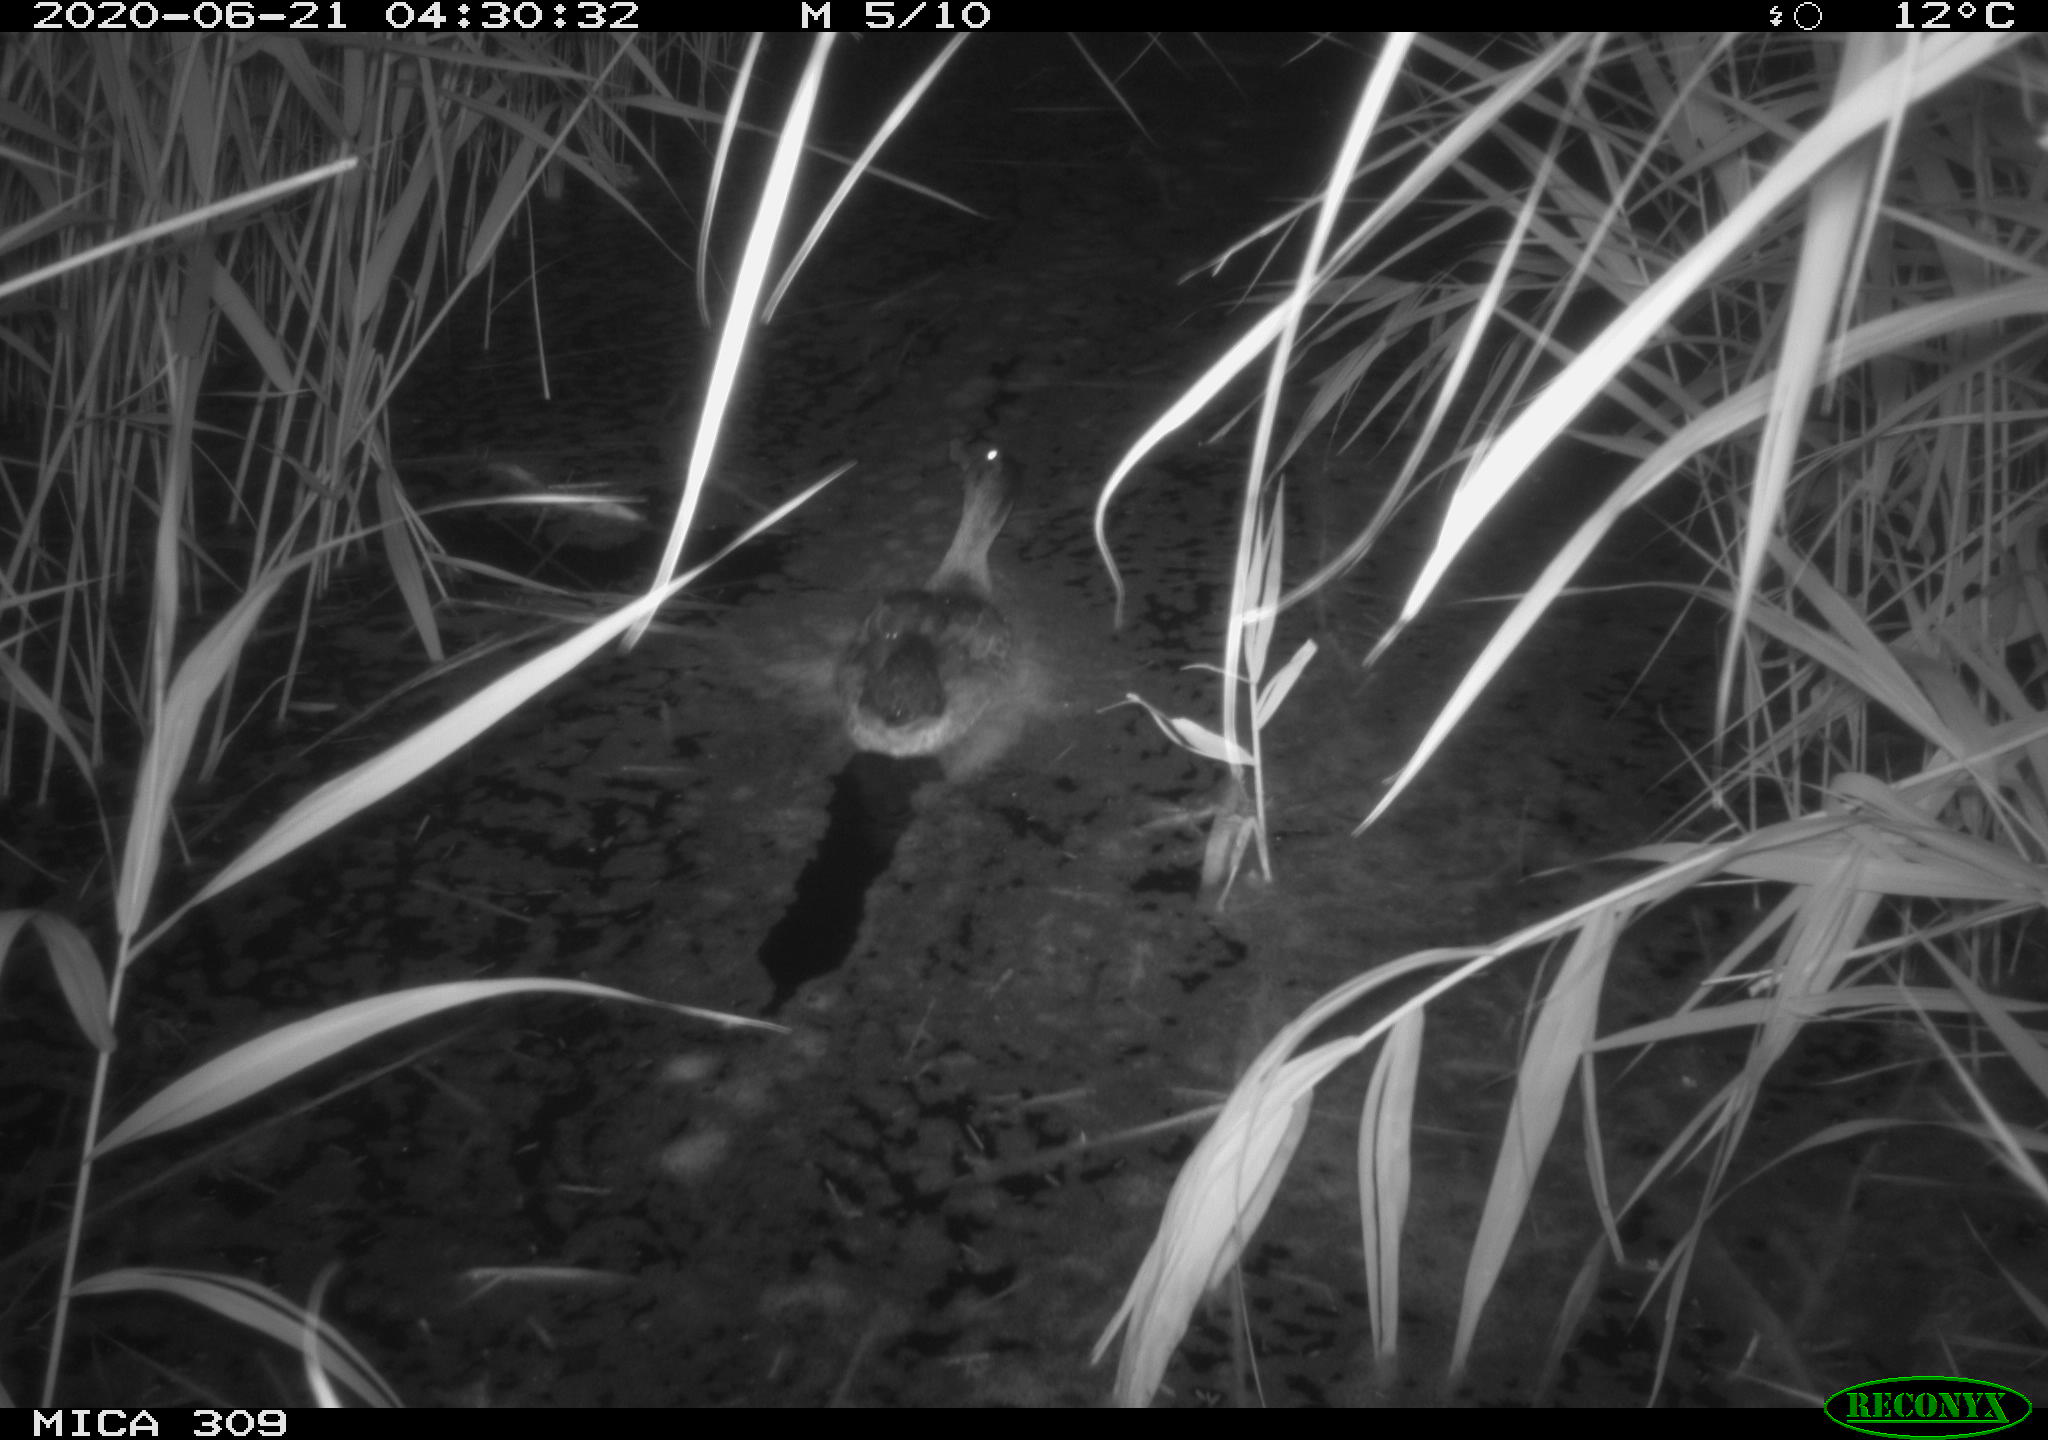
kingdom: Animalia
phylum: Chordata
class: Aves
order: Anseriformes
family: Anatidae
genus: Anas
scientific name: Anas platyrhynchos
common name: Mallard
